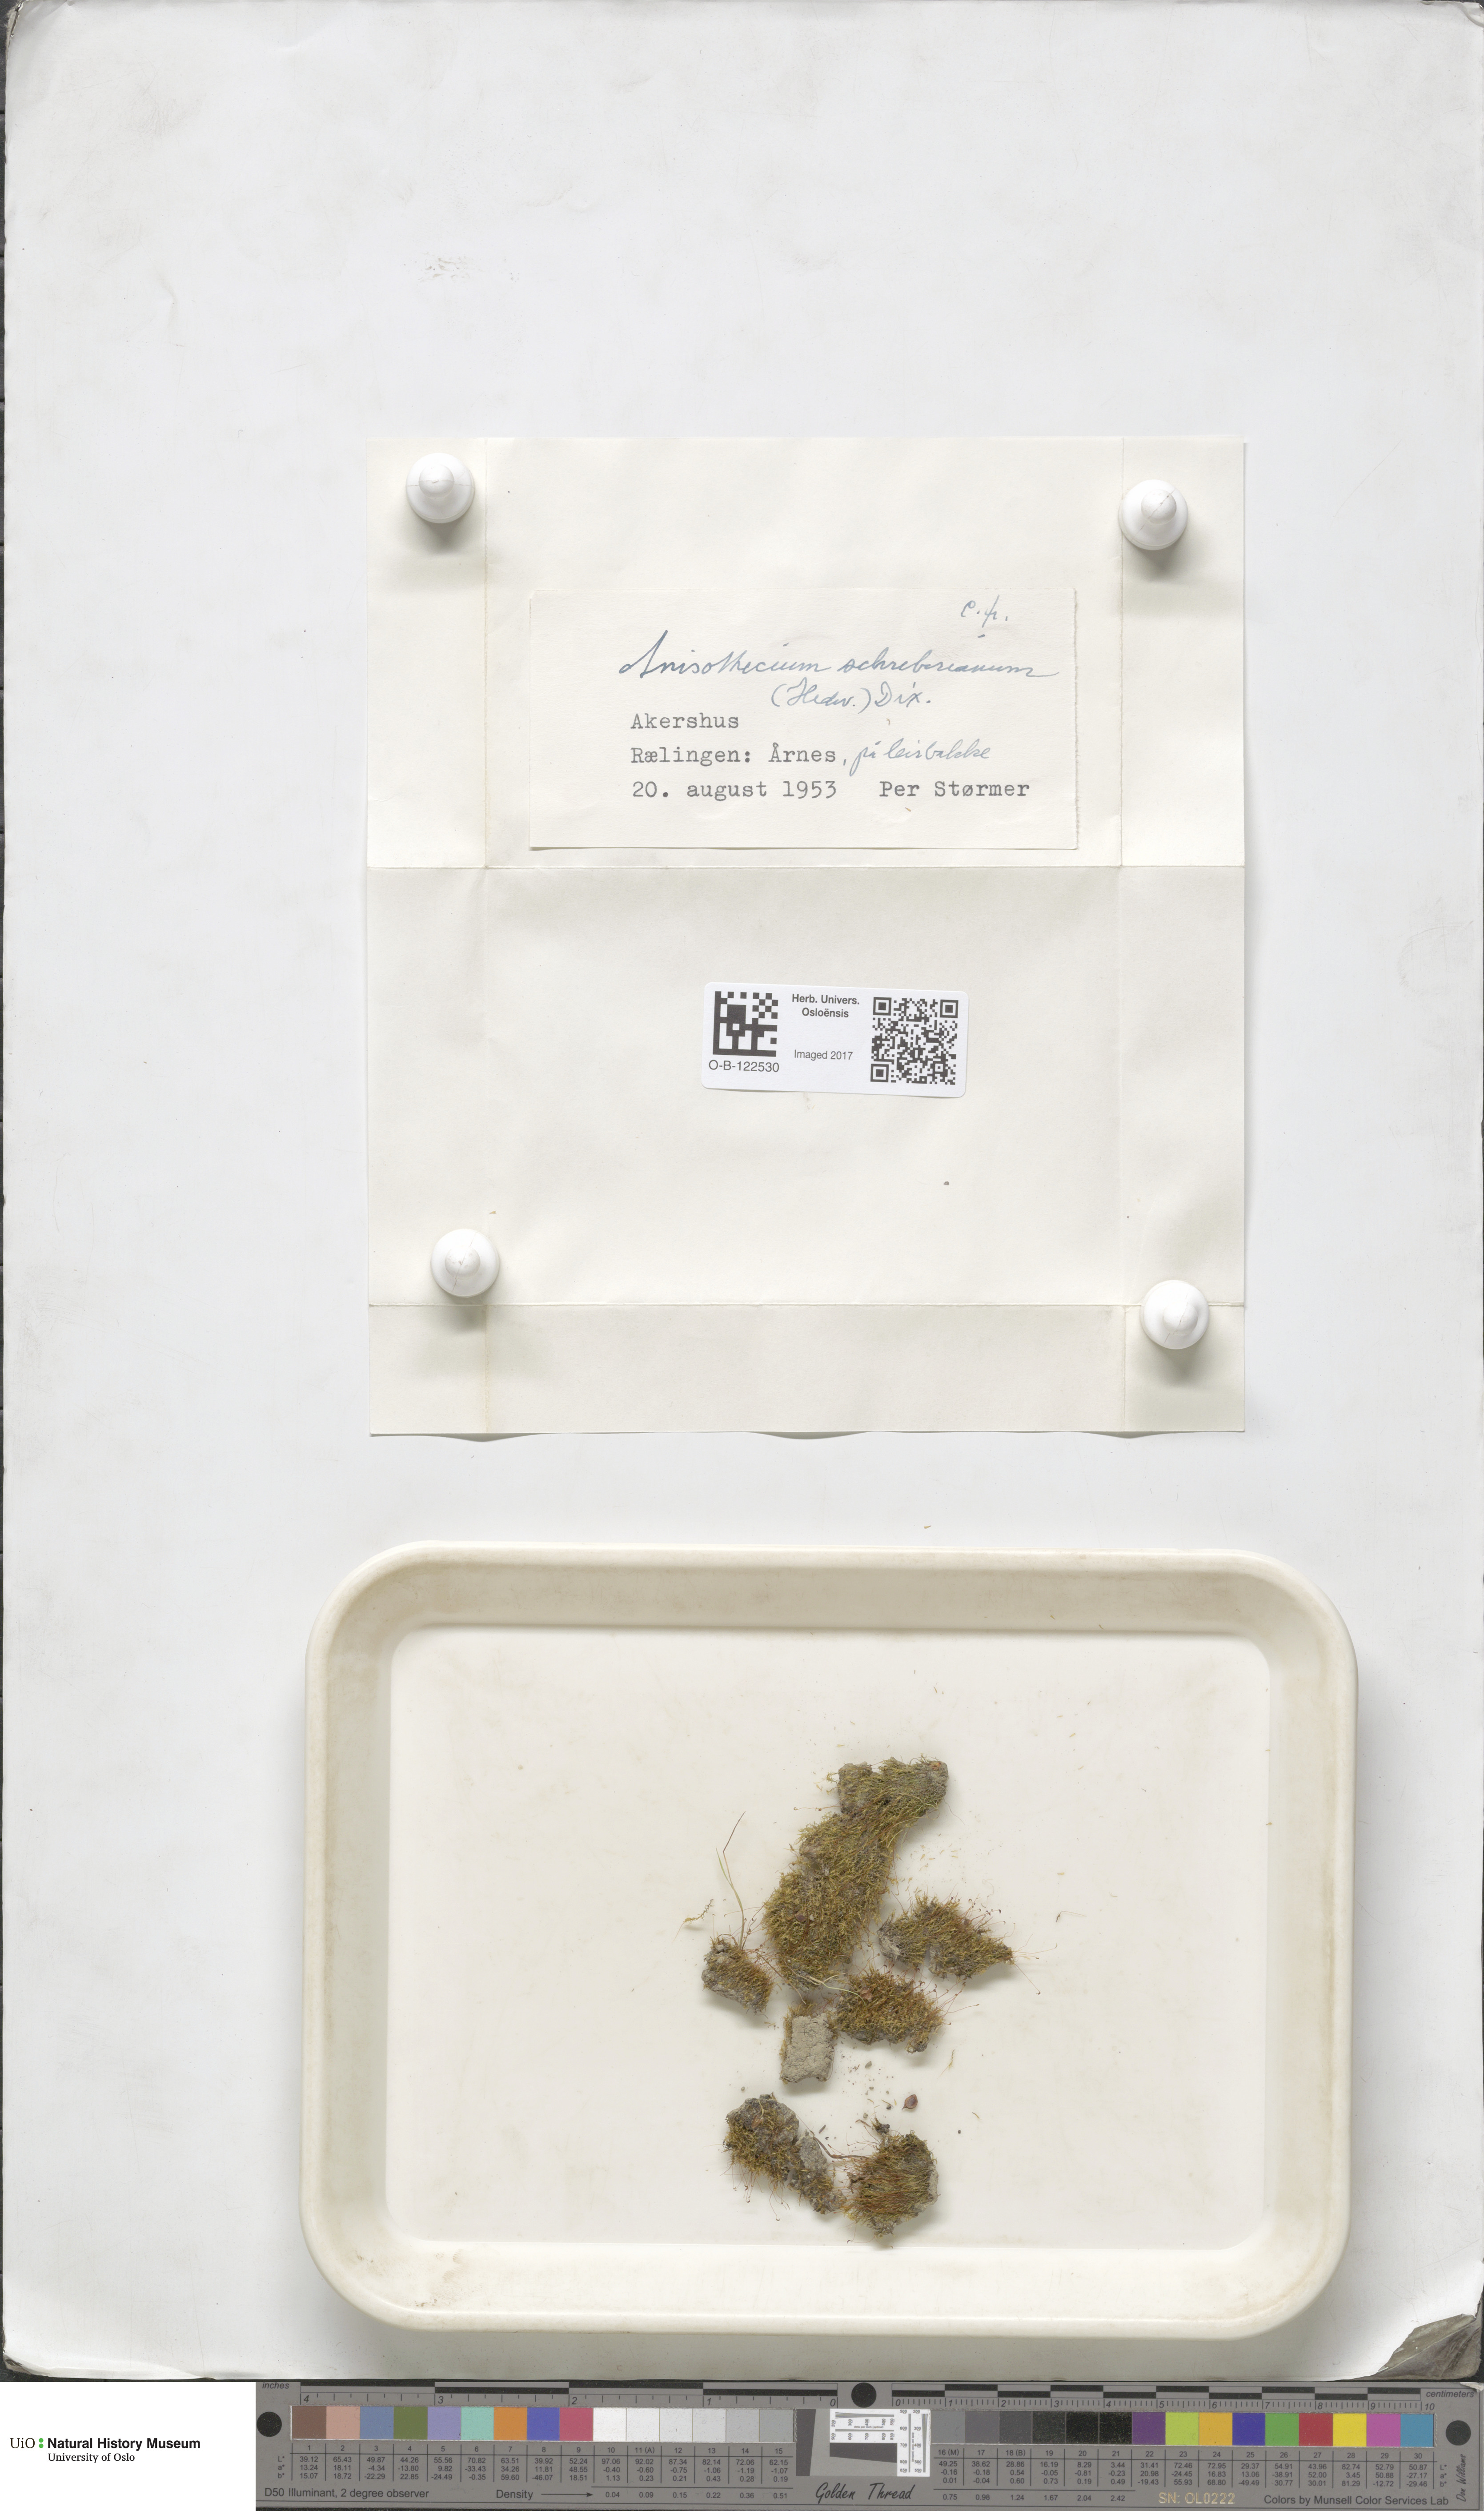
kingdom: Plantae
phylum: Bryophyta
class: Bryopsida
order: Dicranales
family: Dicranellaceae
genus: Dicranella
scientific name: Dicranella schreberiana
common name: Schreber's forklet moss
